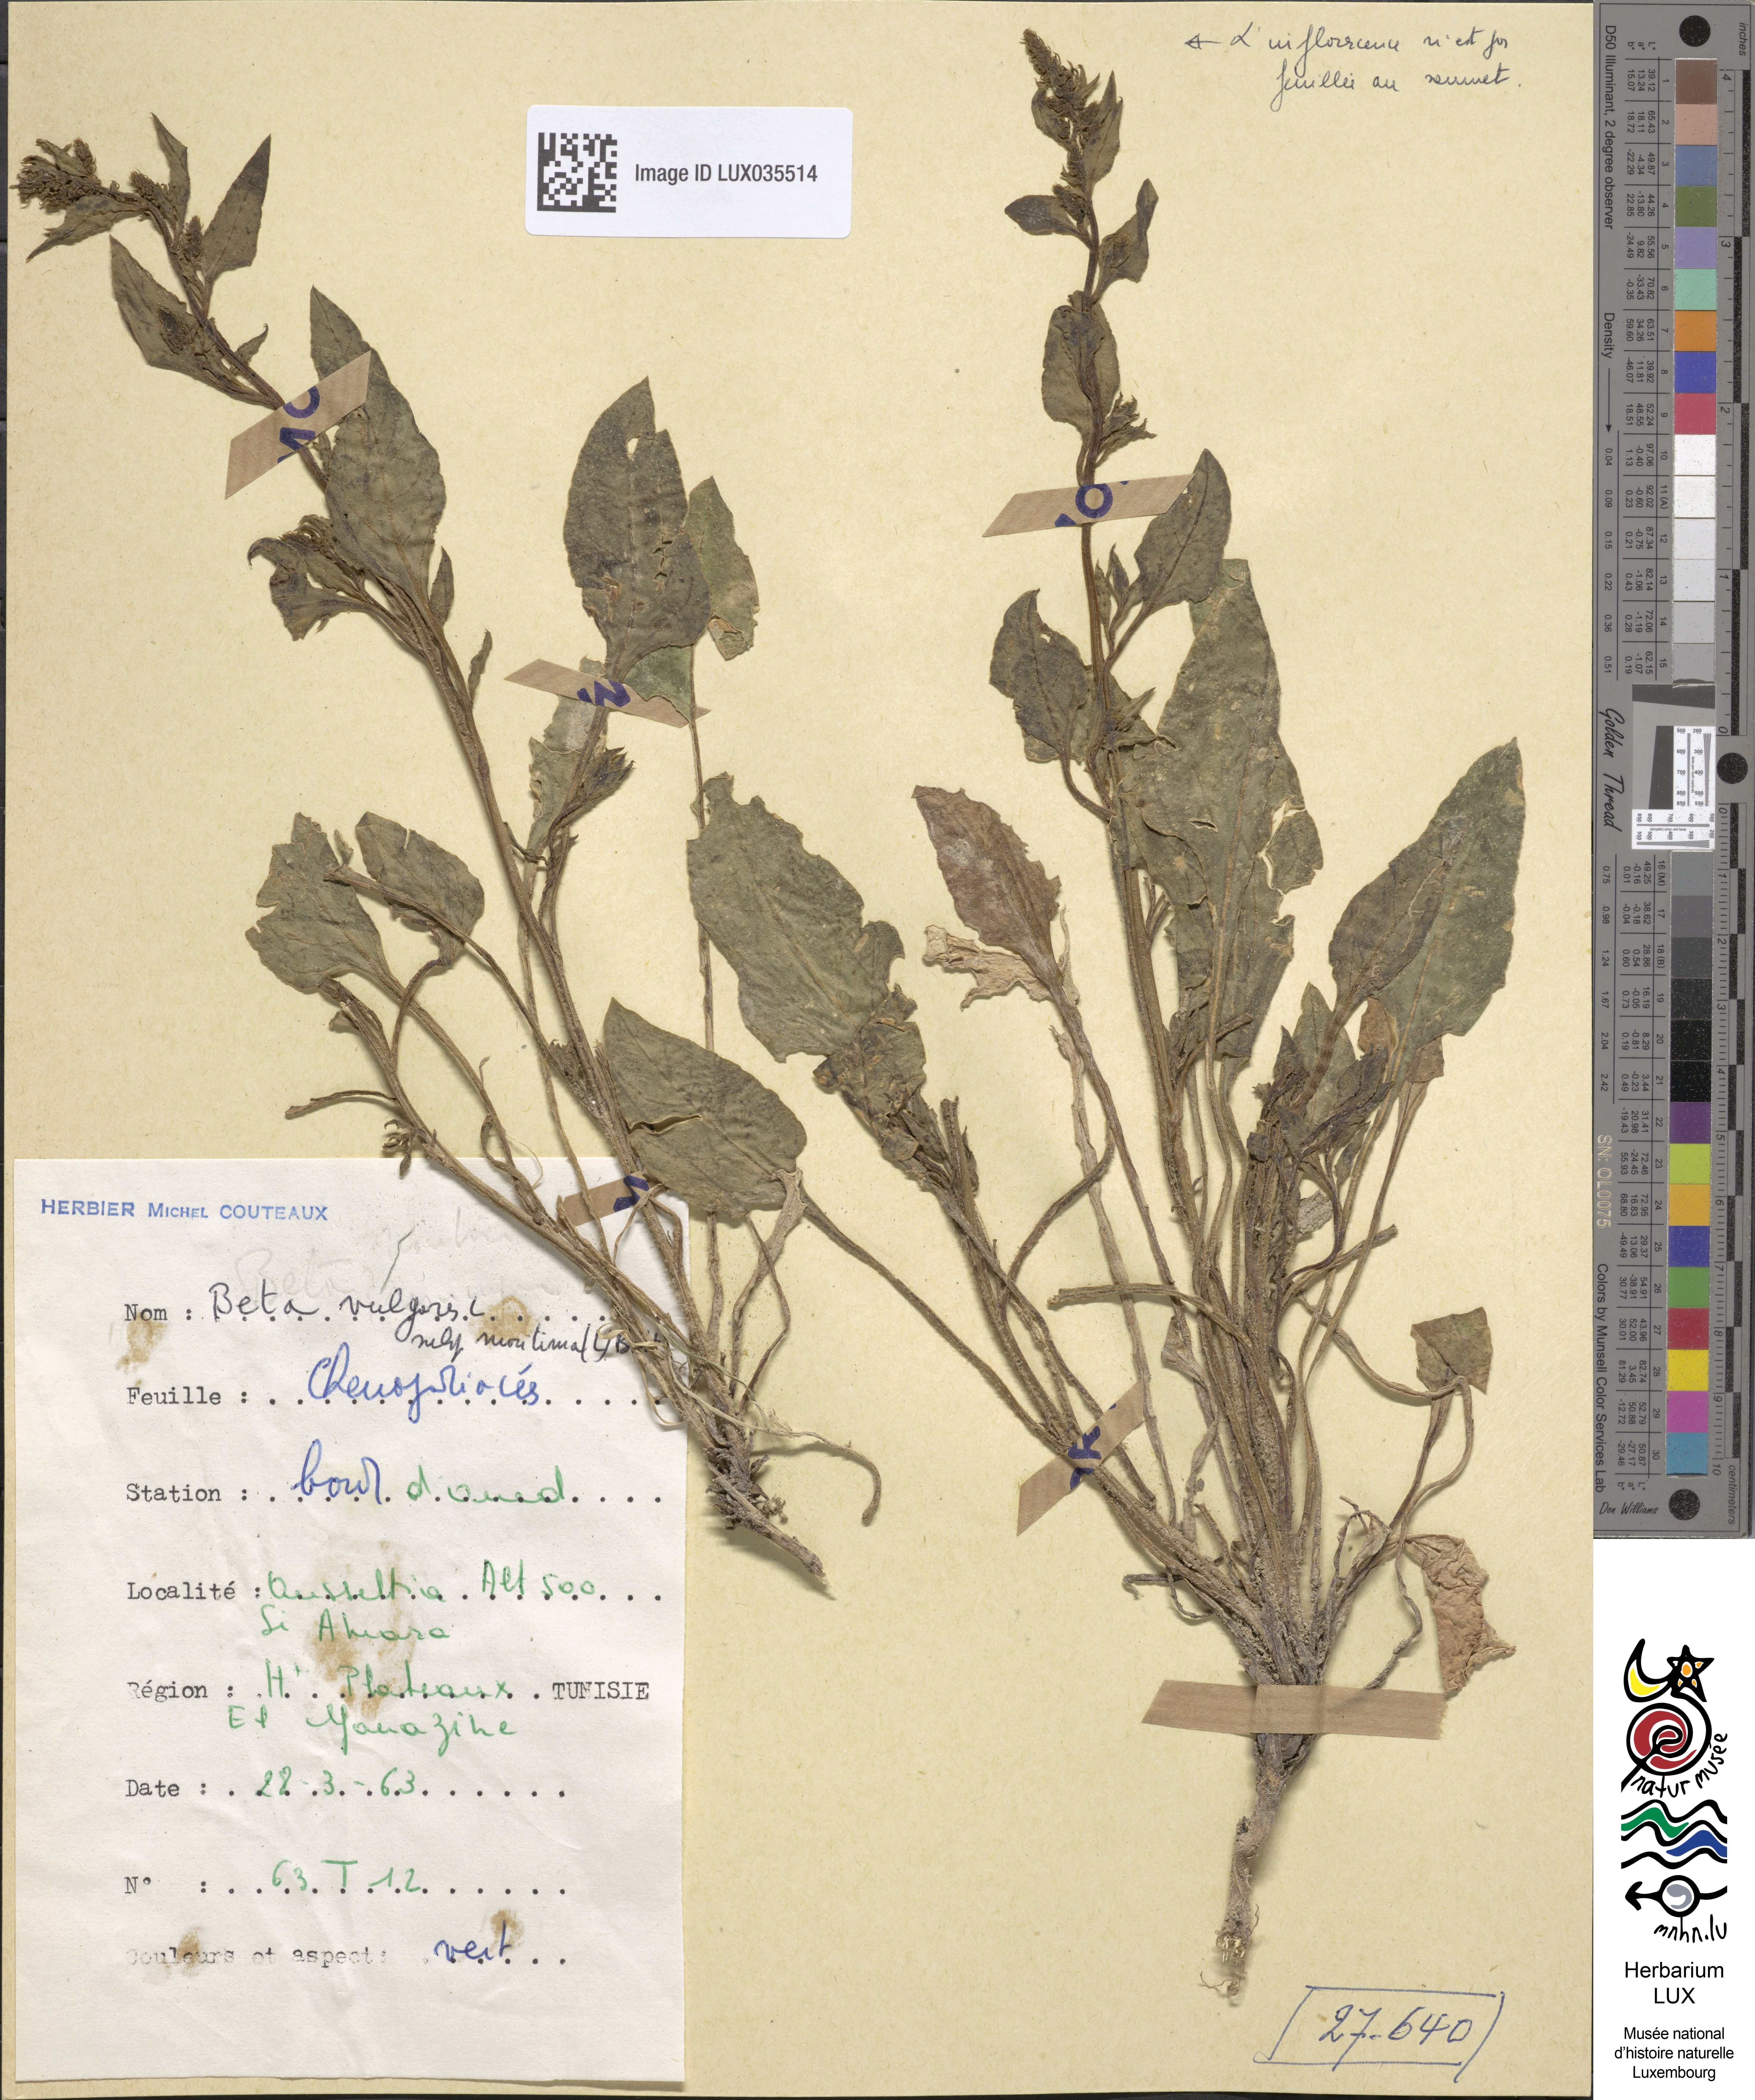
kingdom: Plantae
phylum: Tracheophyta
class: Magnoliopsida
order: Caryophyllales
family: Amaranthaceae
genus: Beta
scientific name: Beta maritima
